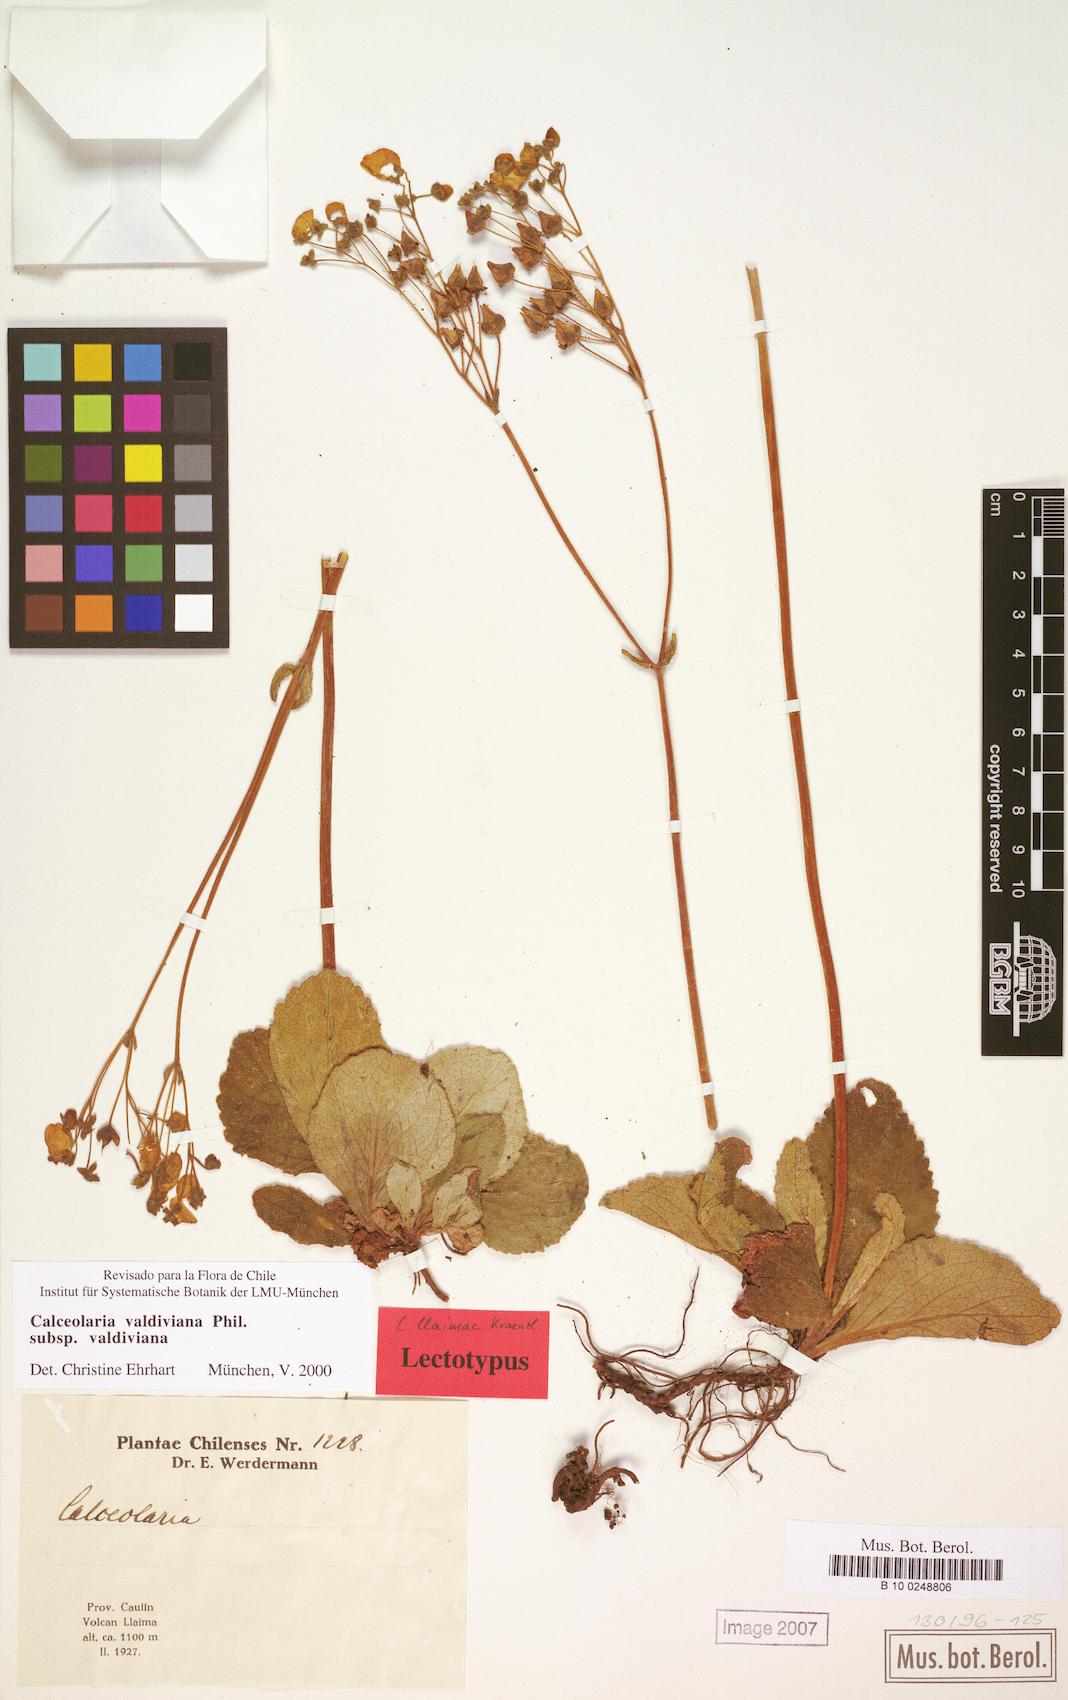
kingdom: Plantae
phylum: Tracheophyta
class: Magnoliopsida
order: Lamiales
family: Calceolariaceae
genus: Calceolaria
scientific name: Calceolaria valdiviana
